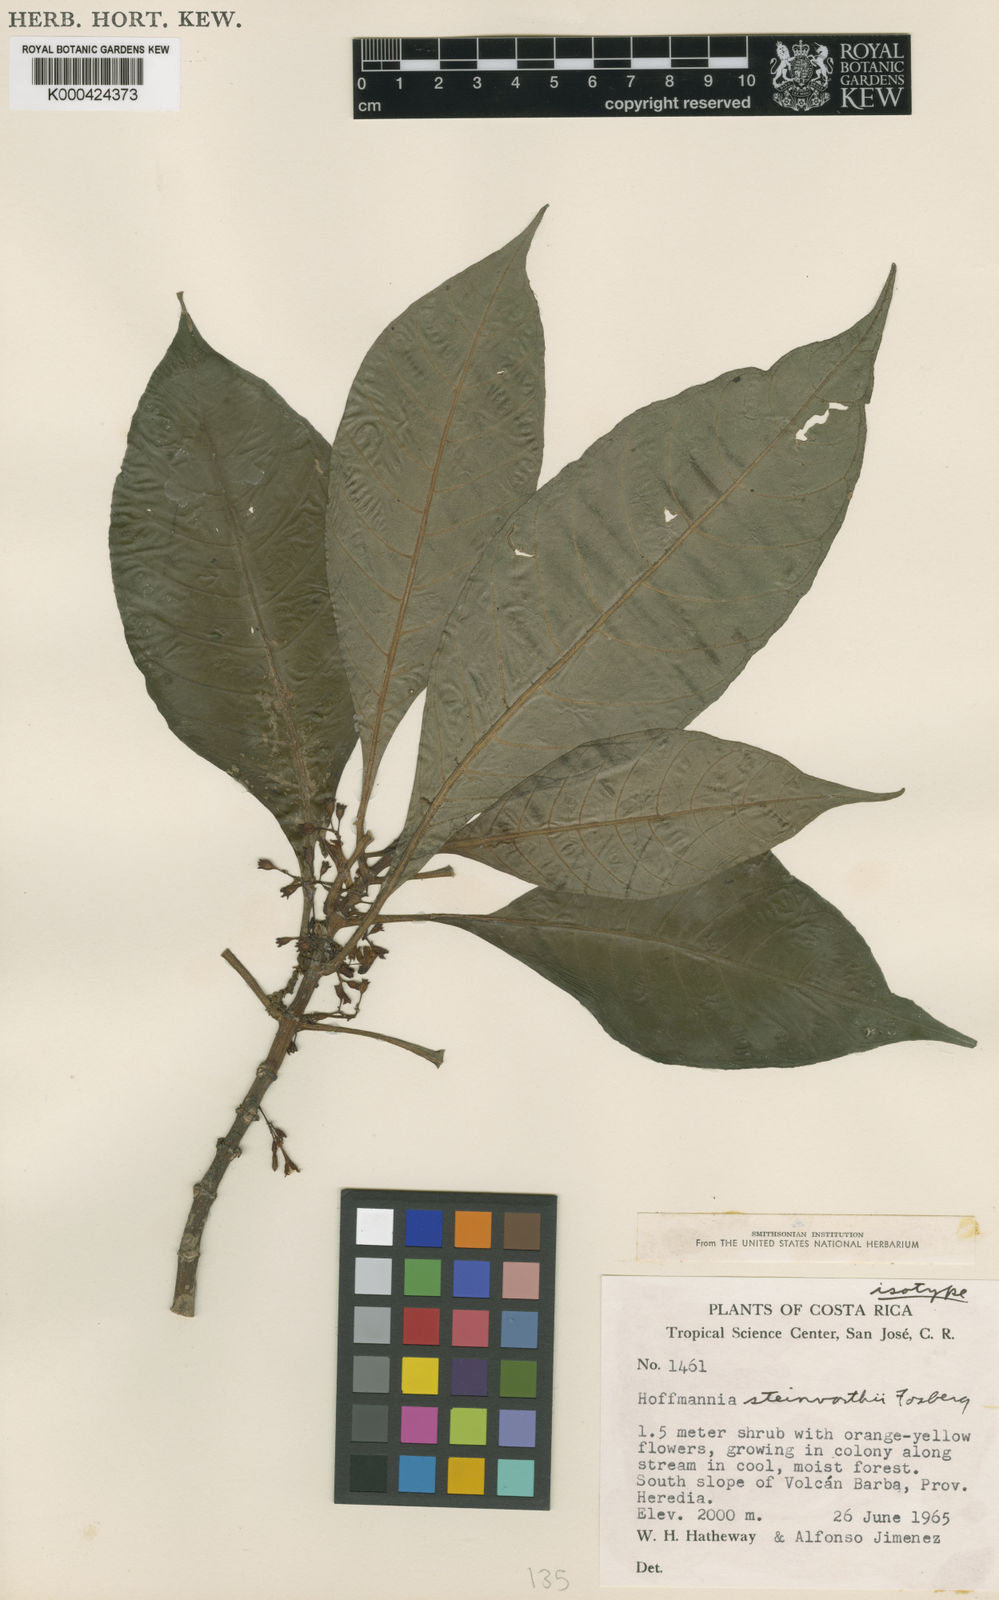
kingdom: Plantae
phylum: Tracheophyta
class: Magnoliopsida
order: Gentianales
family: Rubiaceae
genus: Hoffmannia
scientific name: Hoffmannia arborescens
